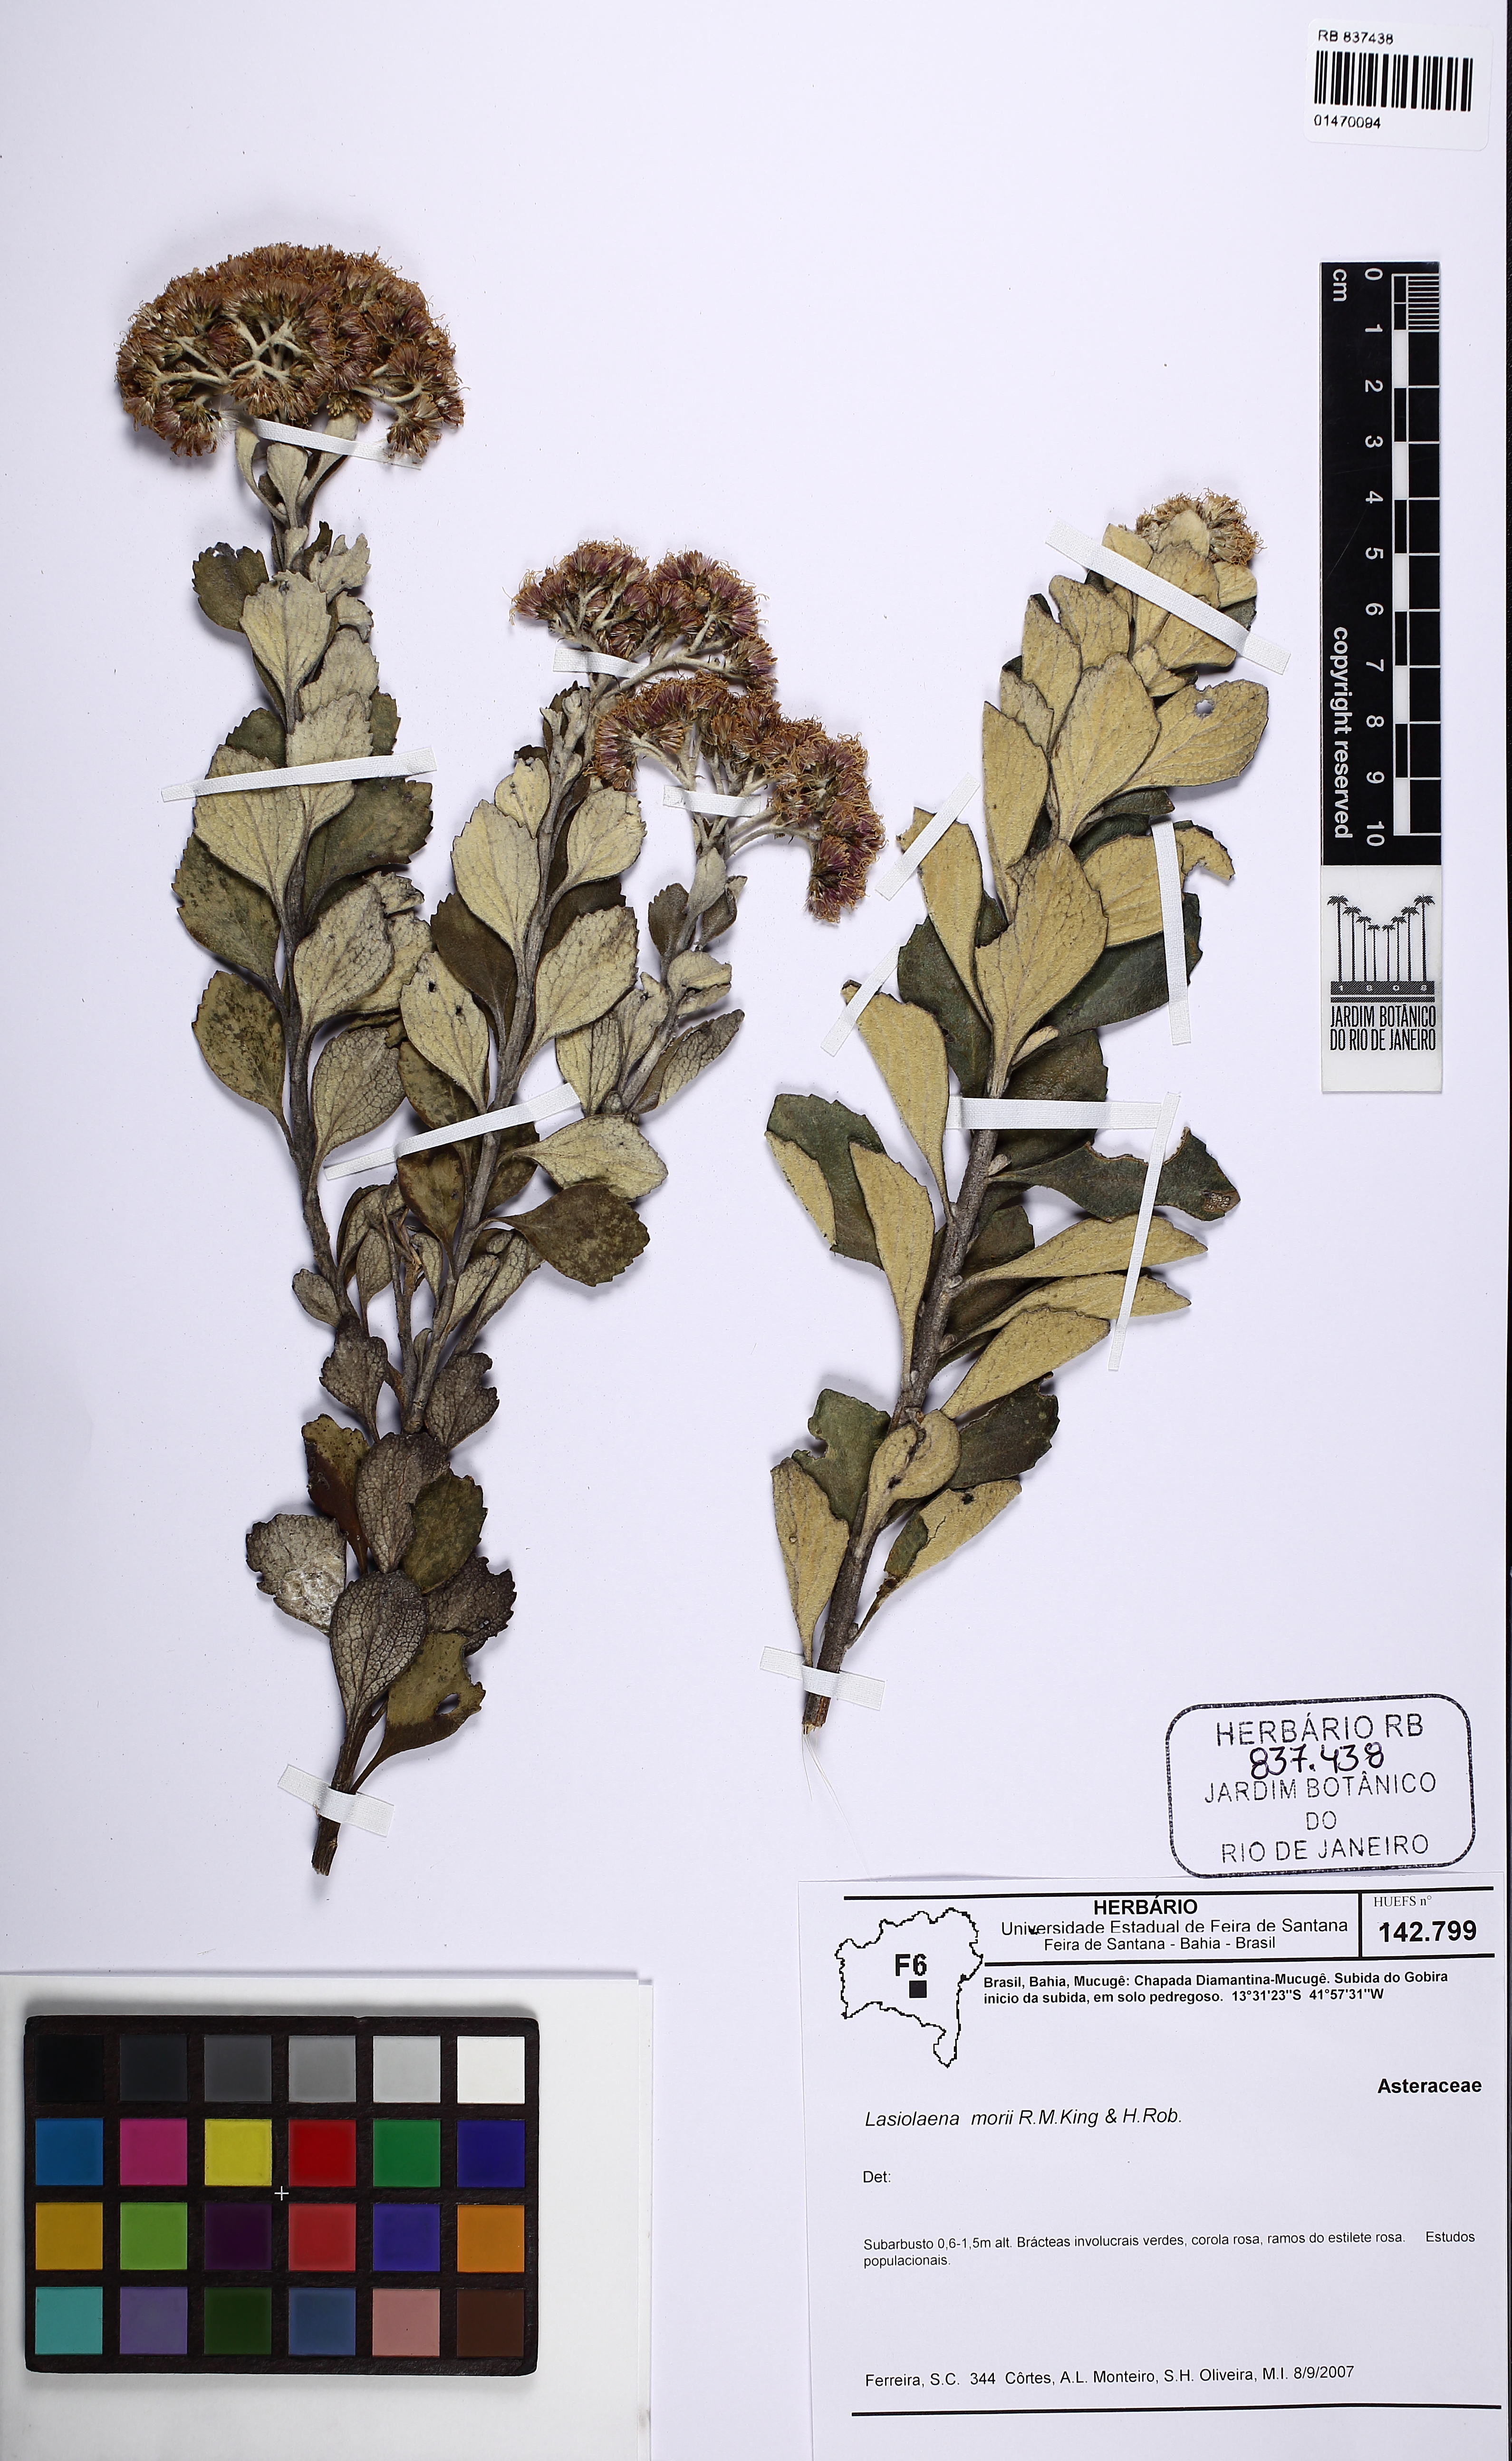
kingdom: Plantae
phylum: Tracheophyta
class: Magnoliopsida
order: Asterales
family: Asteraceae
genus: Lasiolaena
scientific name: Lasiolaena morii
